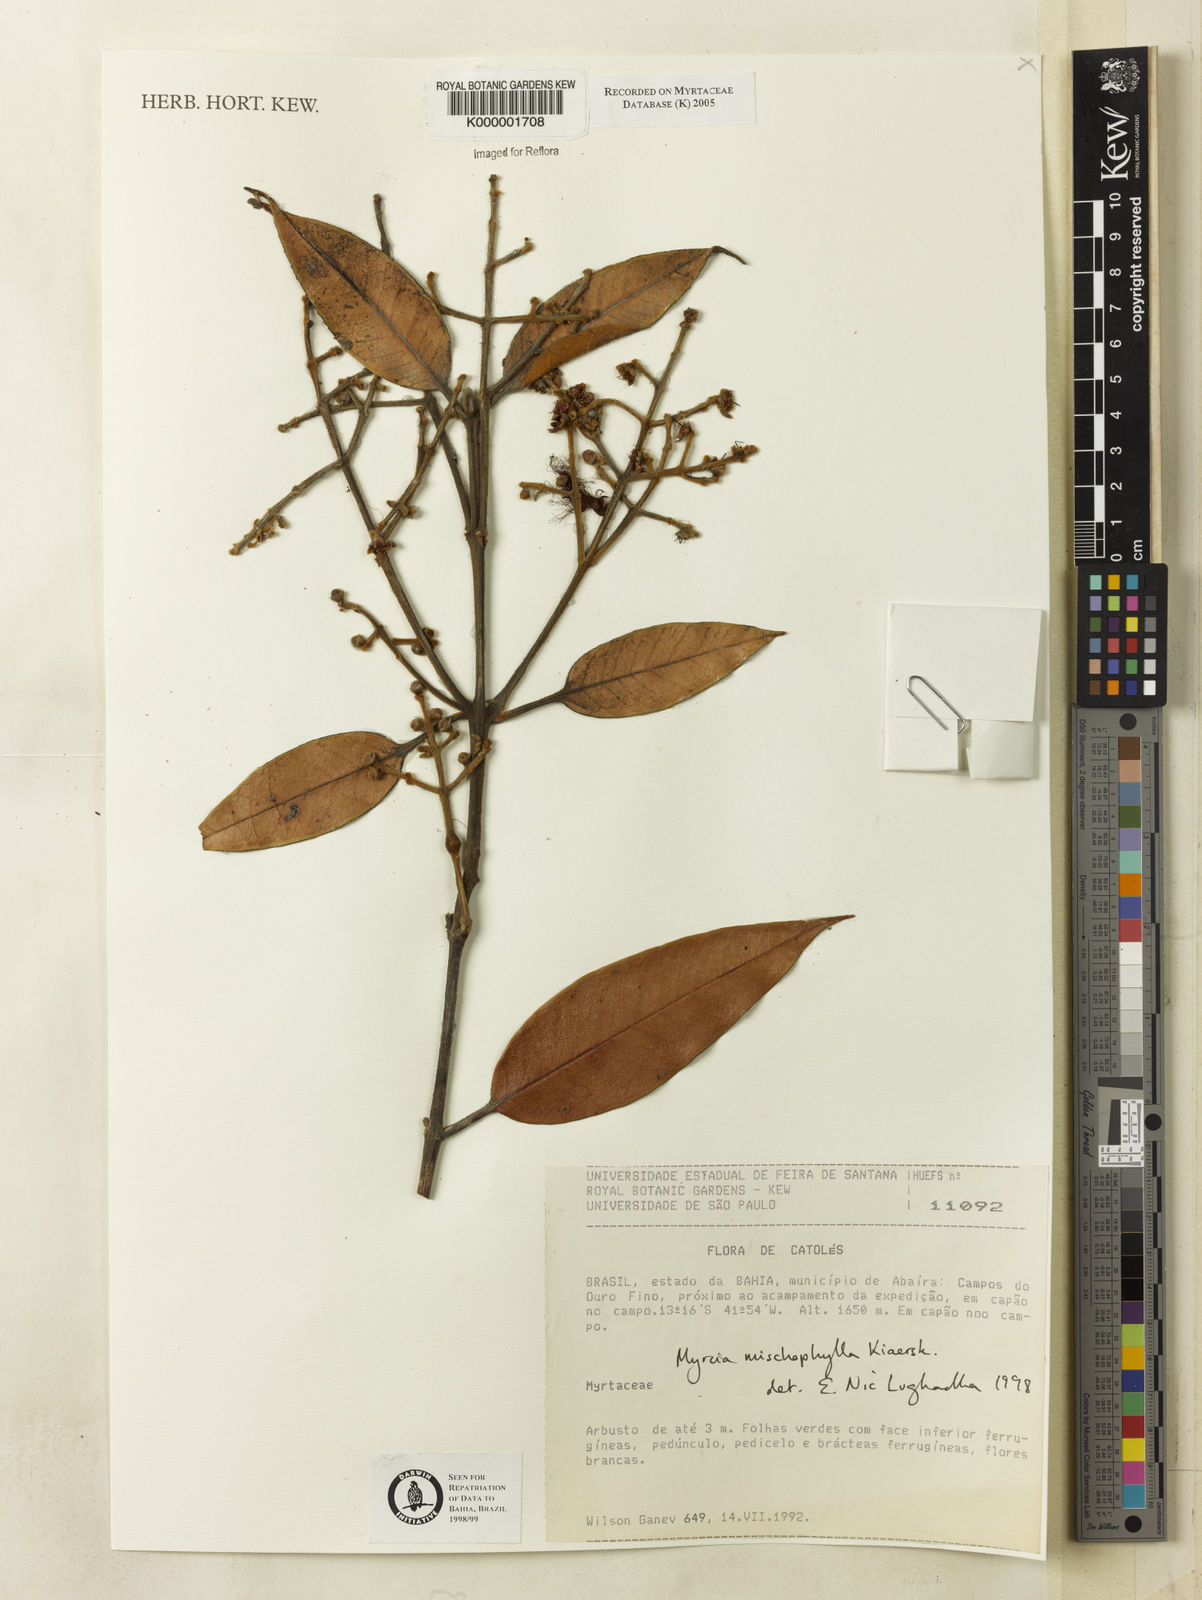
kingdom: Plantae
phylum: Tracheophyta
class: Magnoliopsida
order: Myrtales
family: Myrtaceae
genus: Myrcia
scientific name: Myrcia mischophylla
